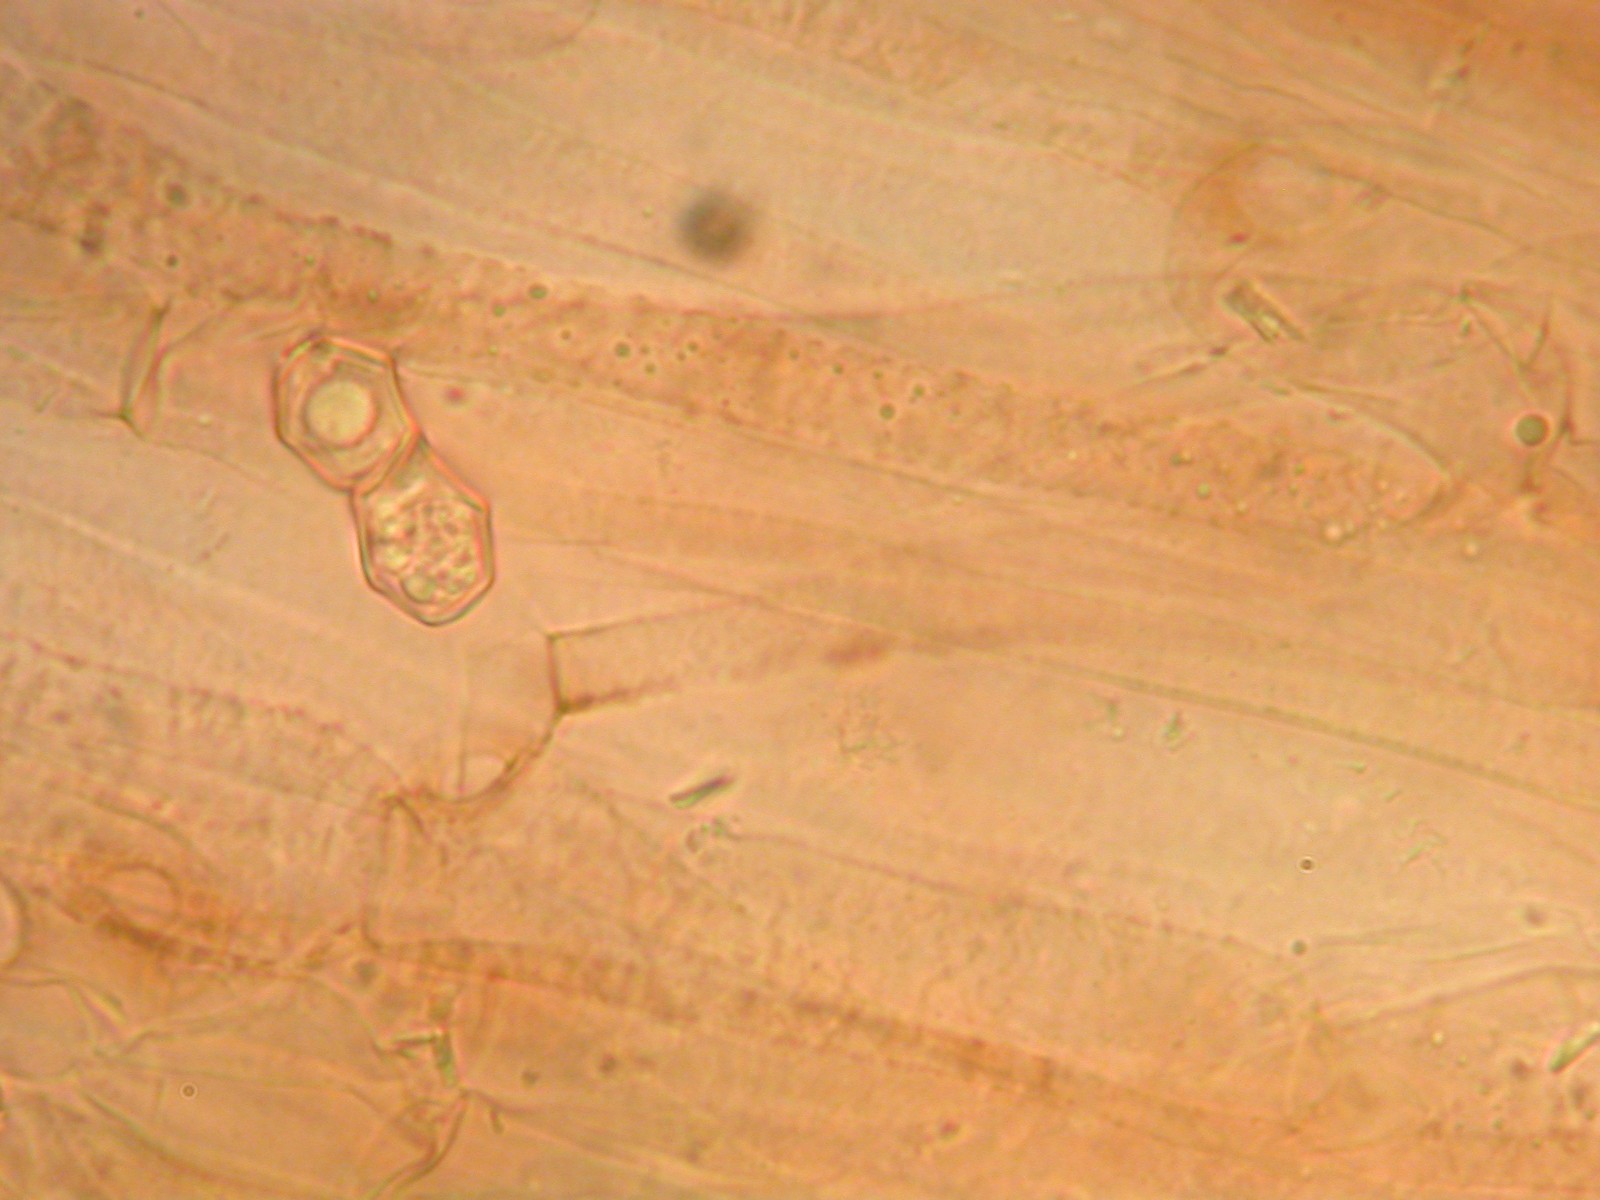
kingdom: Fungi
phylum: Basidiomycota
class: Agaricomycetes
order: Agaricales
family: Entolomataceae
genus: Entoloma
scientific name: Entoloma clandestinum
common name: tykbladet rødblad
